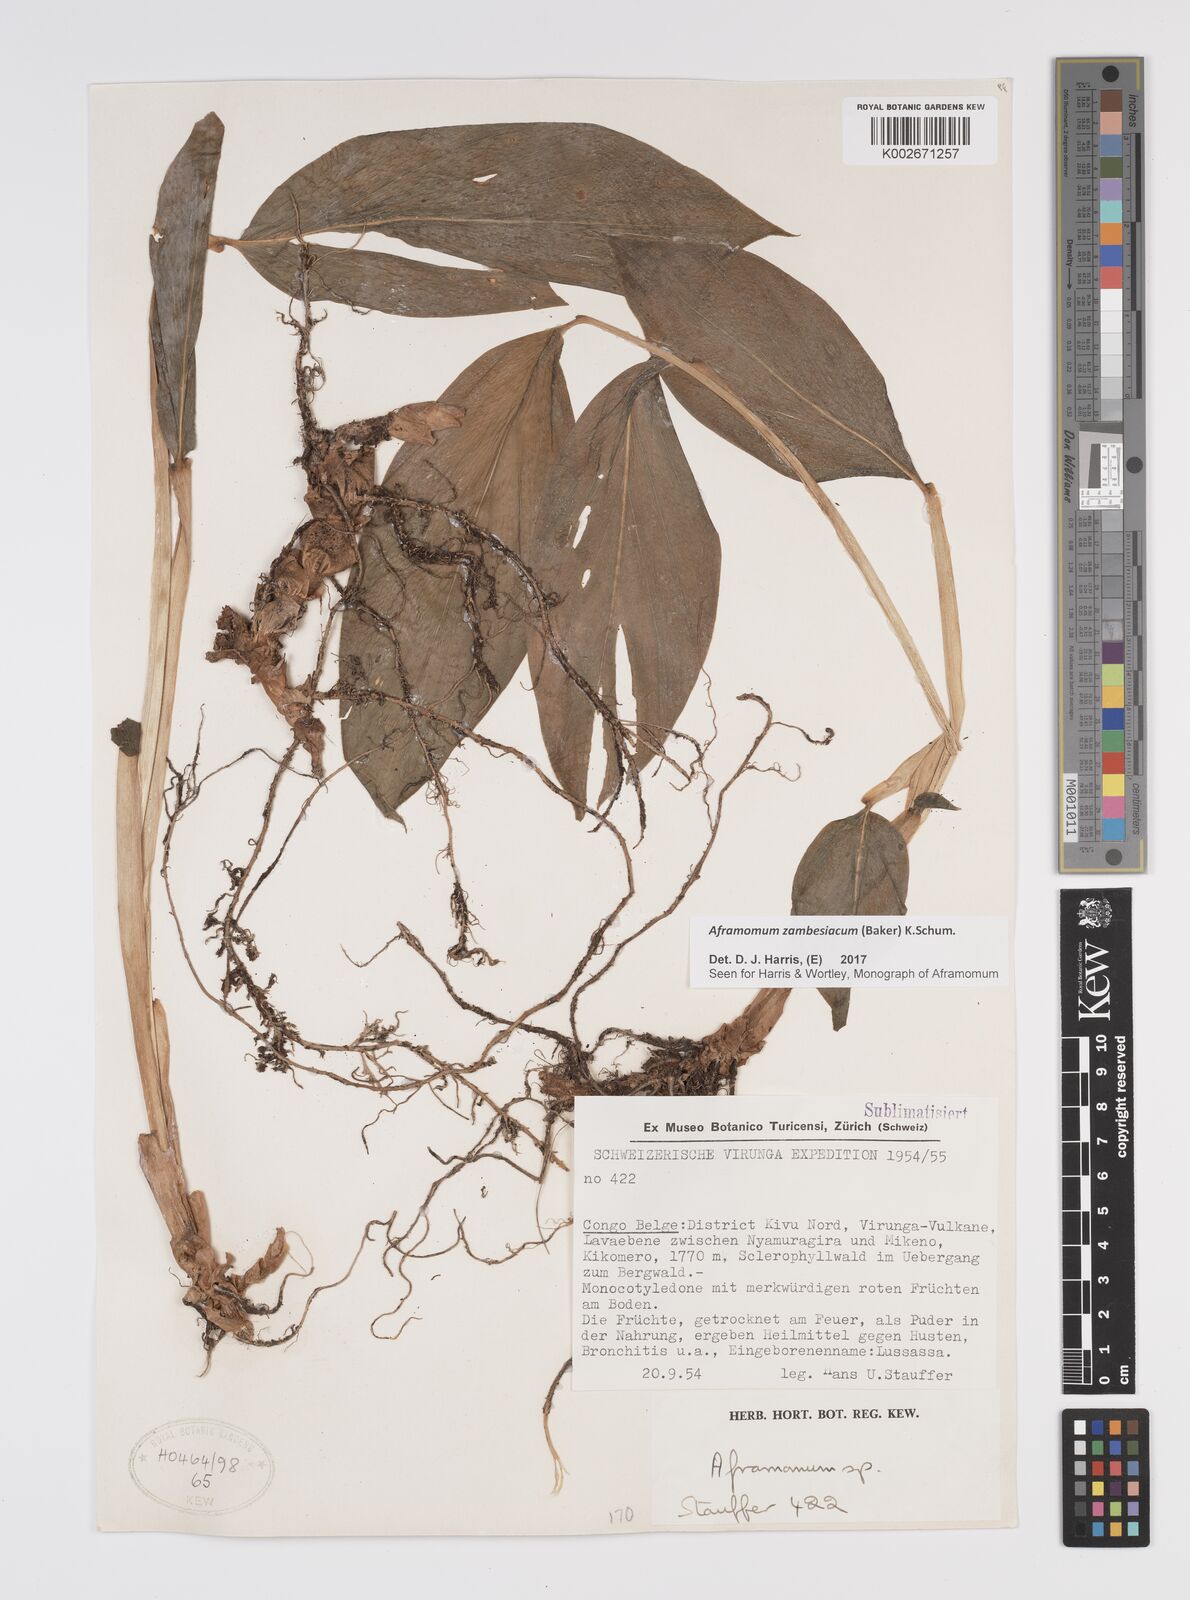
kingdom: Plantae
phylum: Tracheophyta
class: Liliopsida
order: Zingiberales
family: Zingiberaceae
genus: Aframomum
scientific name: Aframomum zambesiacum
